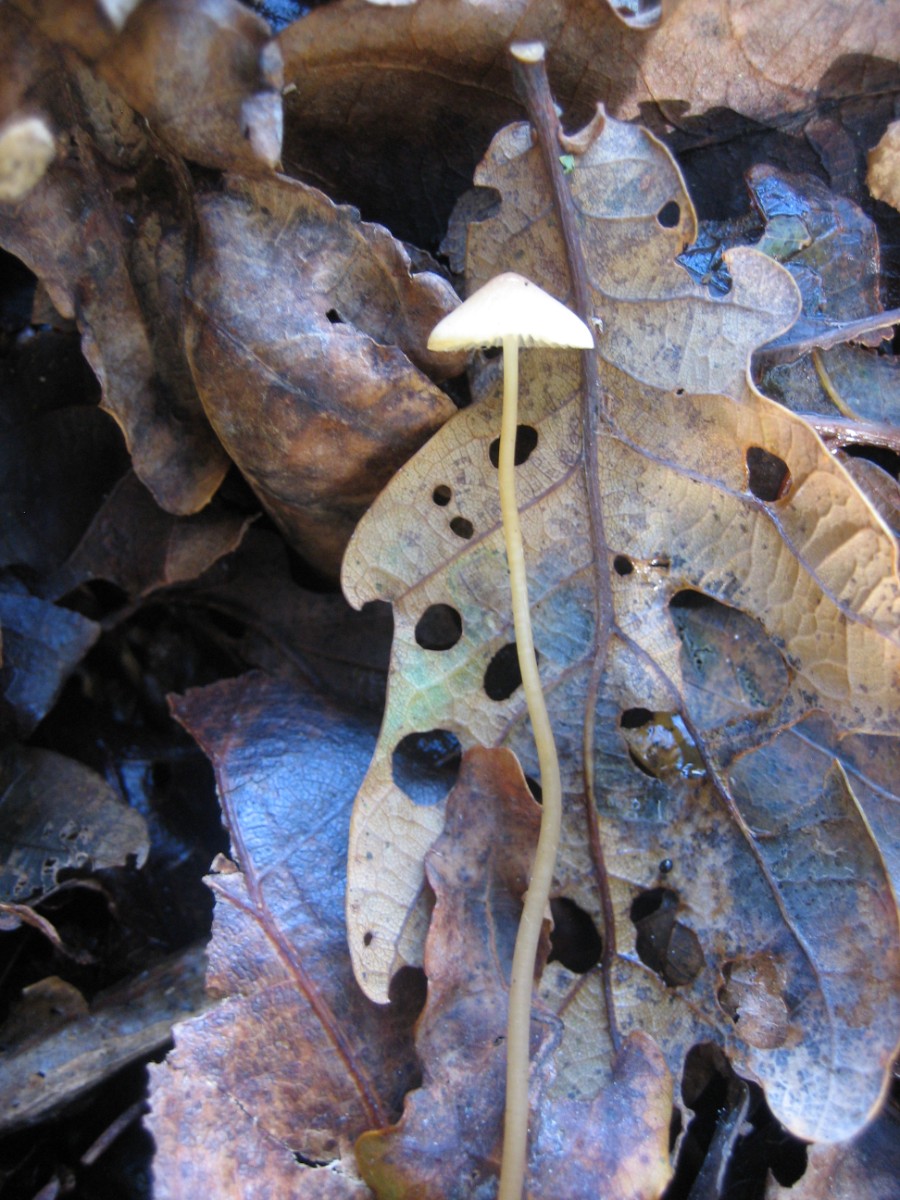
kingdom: Fungi
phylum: Basidiomycota
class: Agaricomycetes
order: Agaricales
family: Mycenaceae
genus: Mycena
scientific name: Mycena citrinomarginata
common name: gulægget huesvamp
